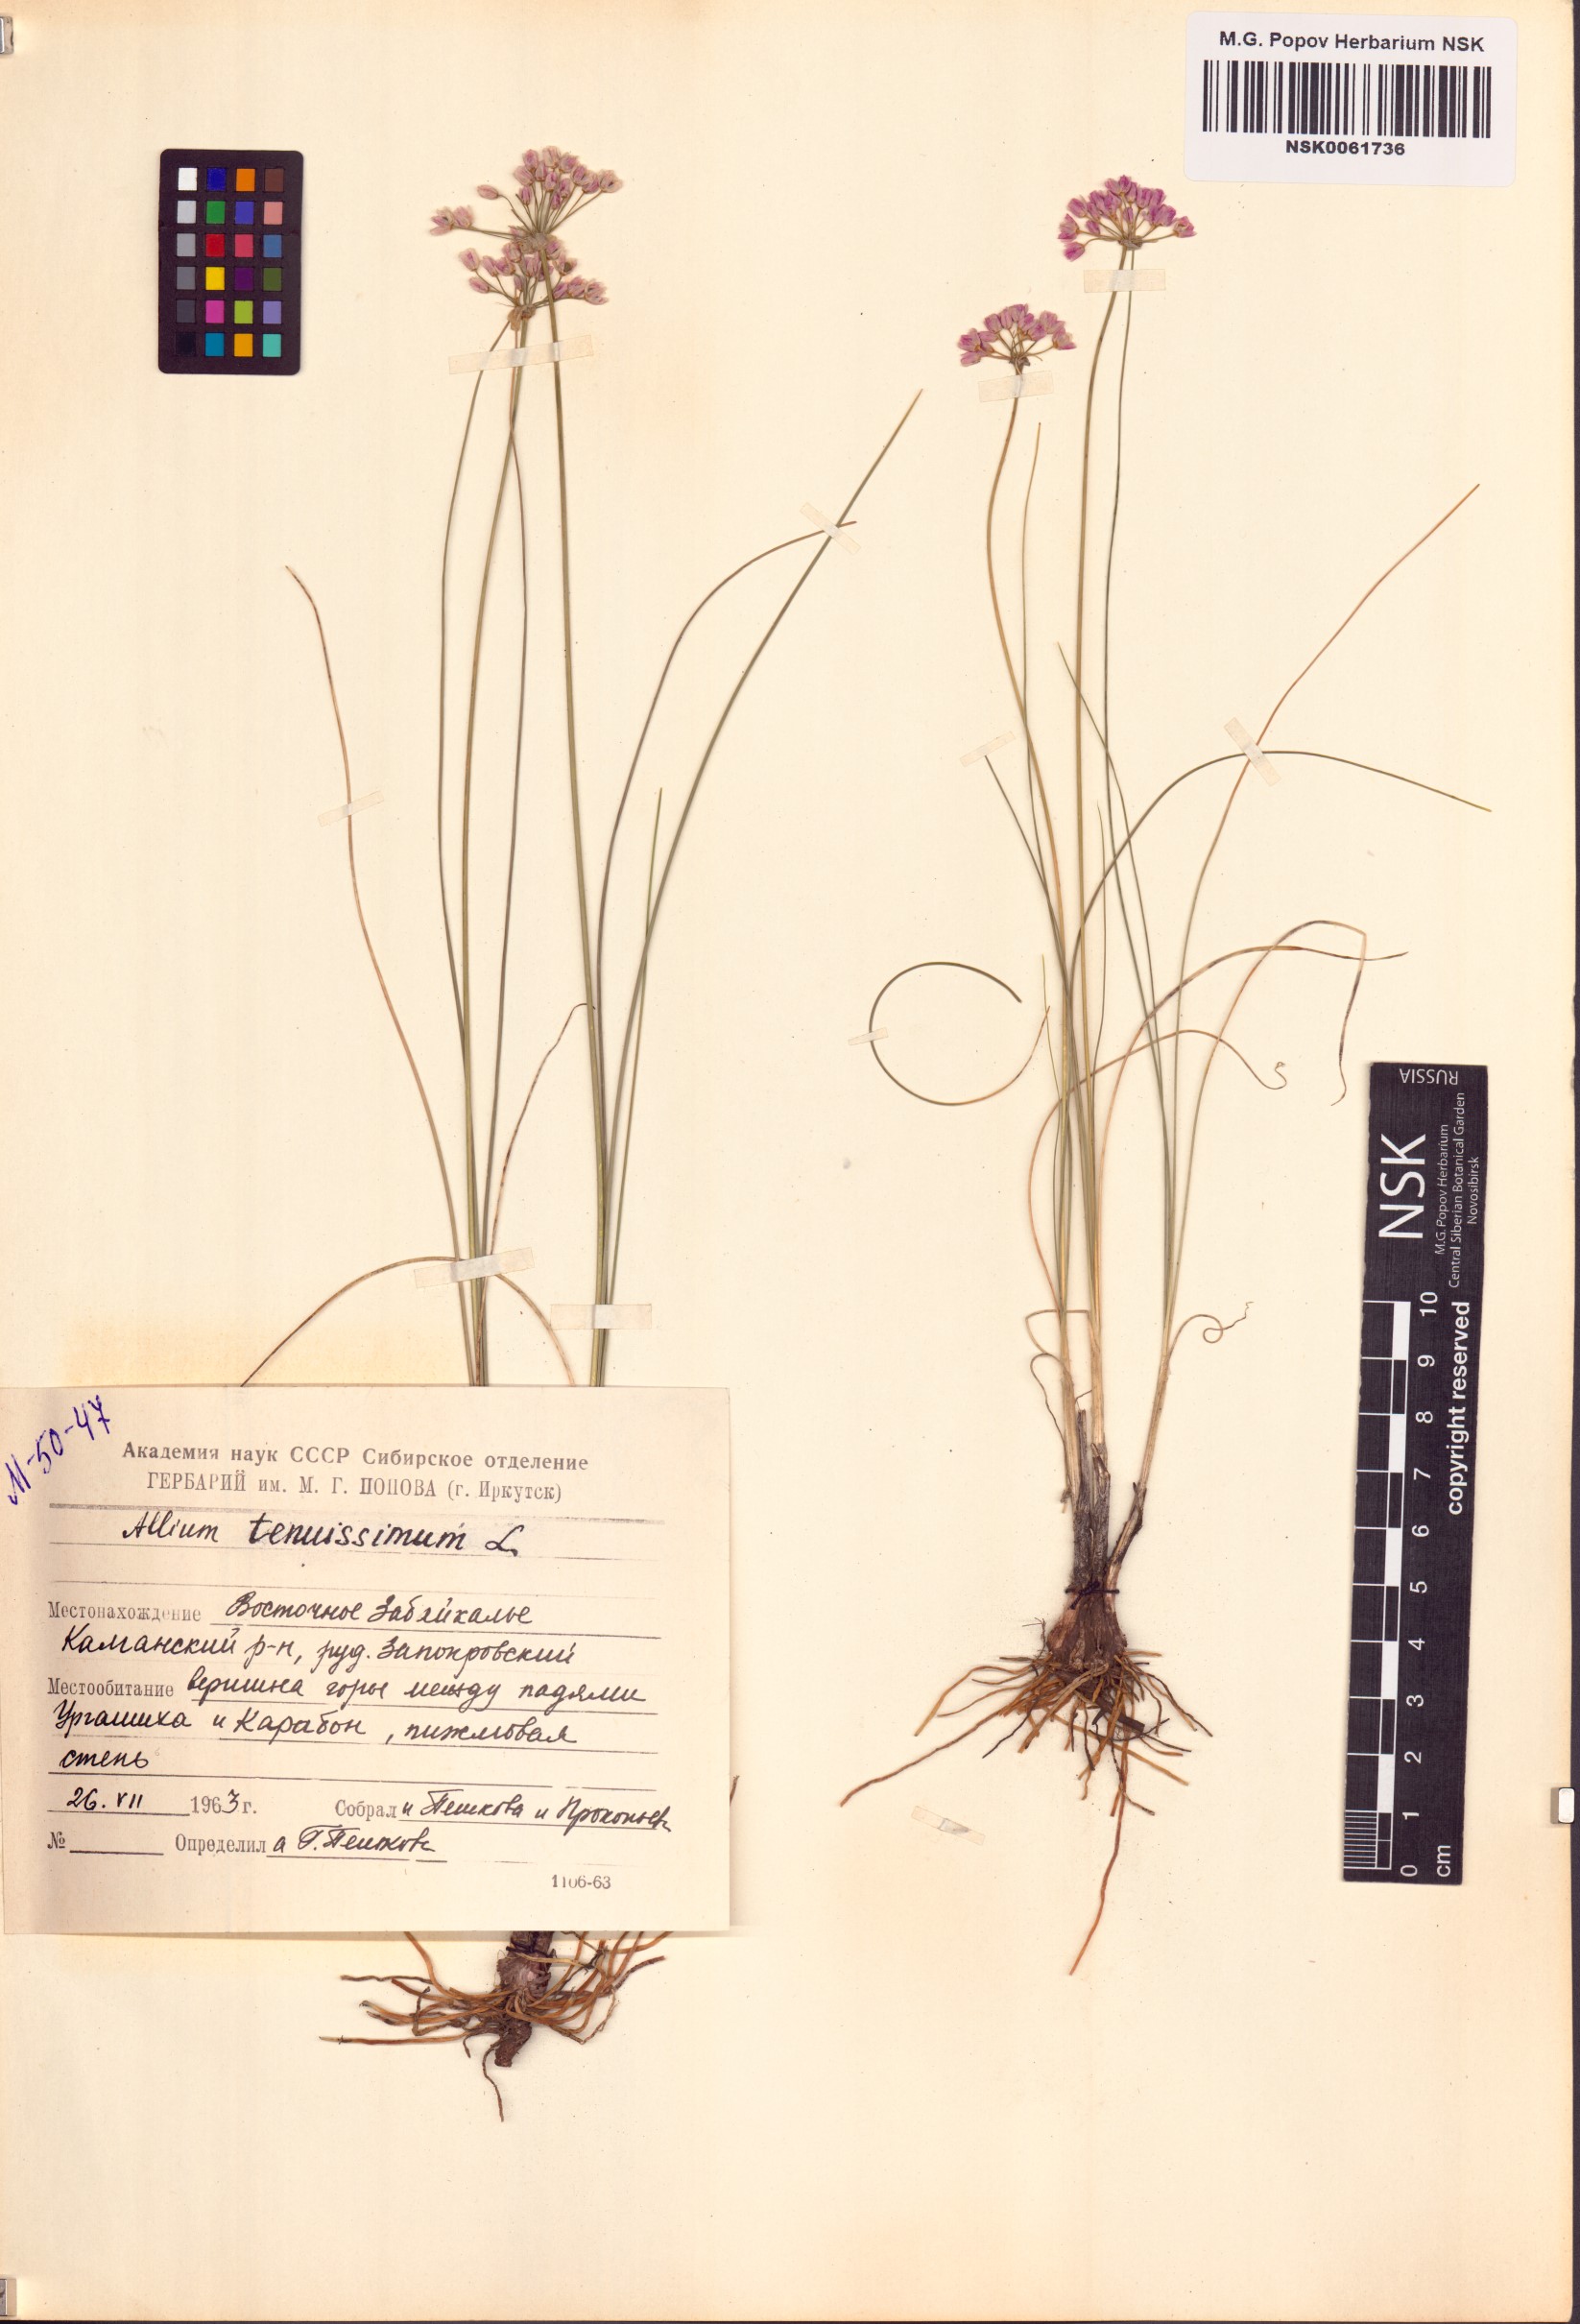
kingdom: Plantae
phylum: Tracheophyta
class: Liliopsida
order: Asparagales
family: Amaryllidaceae
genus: Allium
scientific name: Allium tenuissimum
